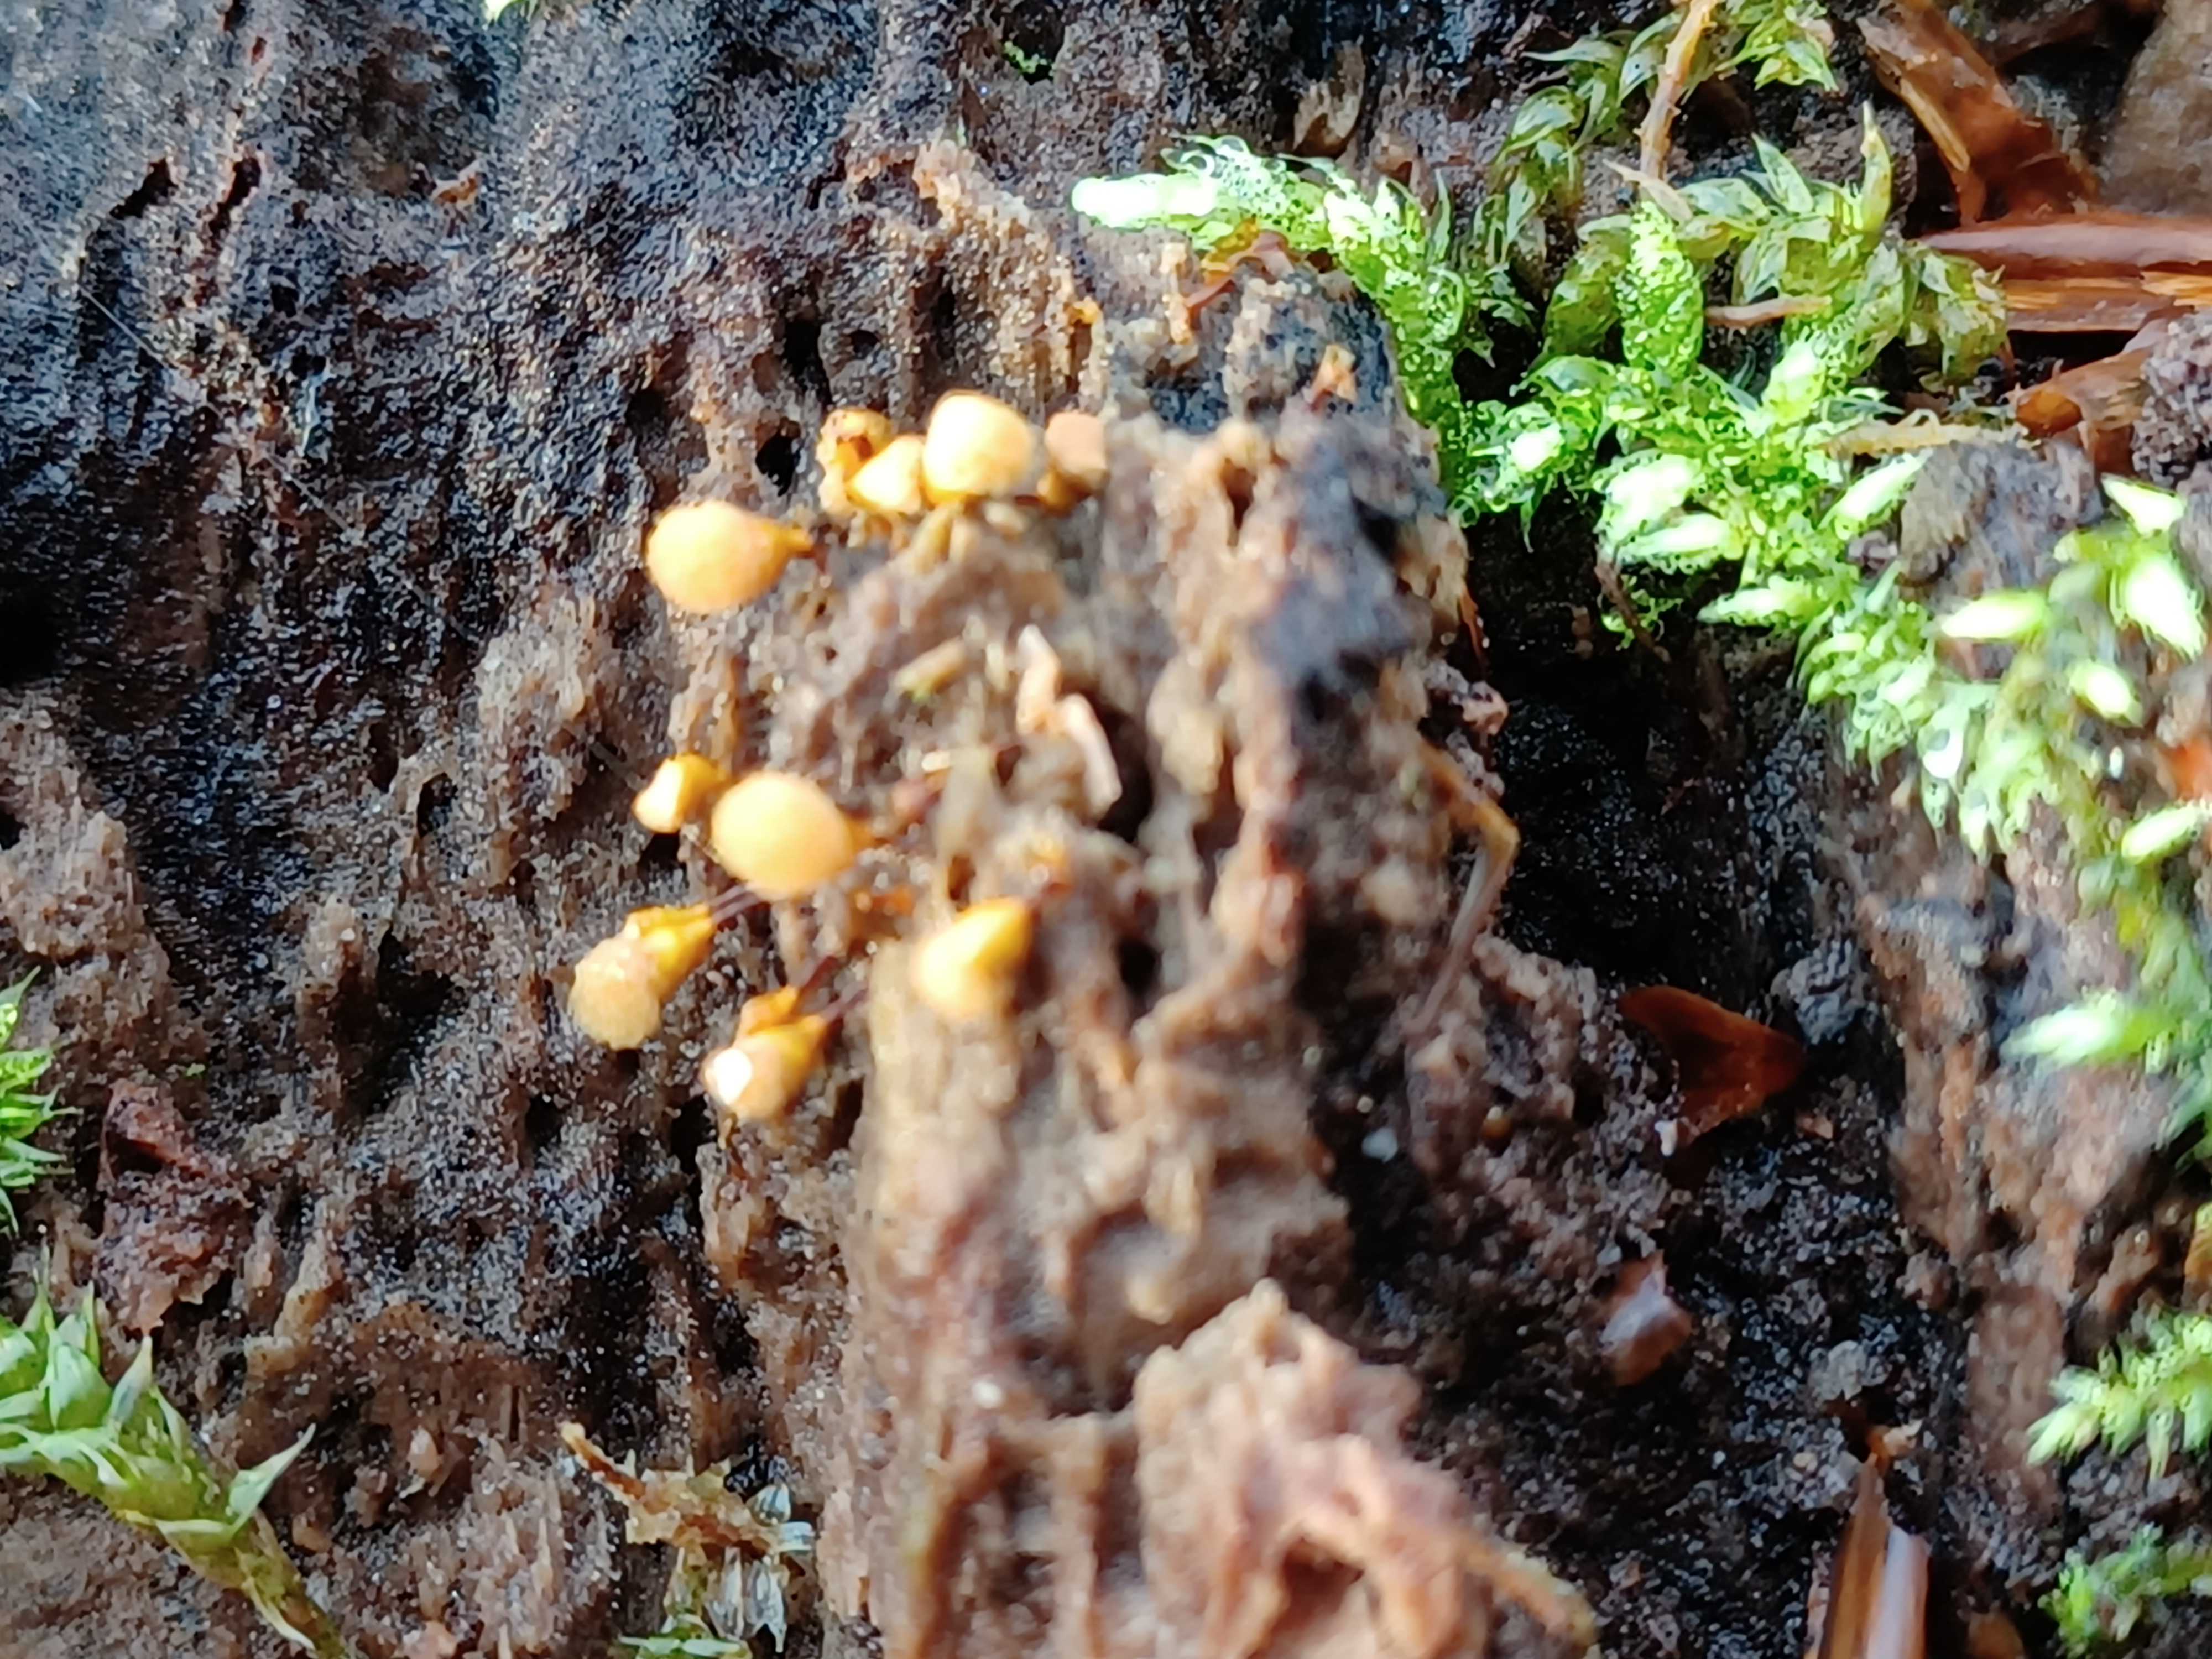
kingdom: Protozoa
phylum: Mycetozoa
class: Myxomycetes
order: Trichiales
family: Arcyriaceae
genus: Hemitrichia
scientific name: Hemitrichia clavata
